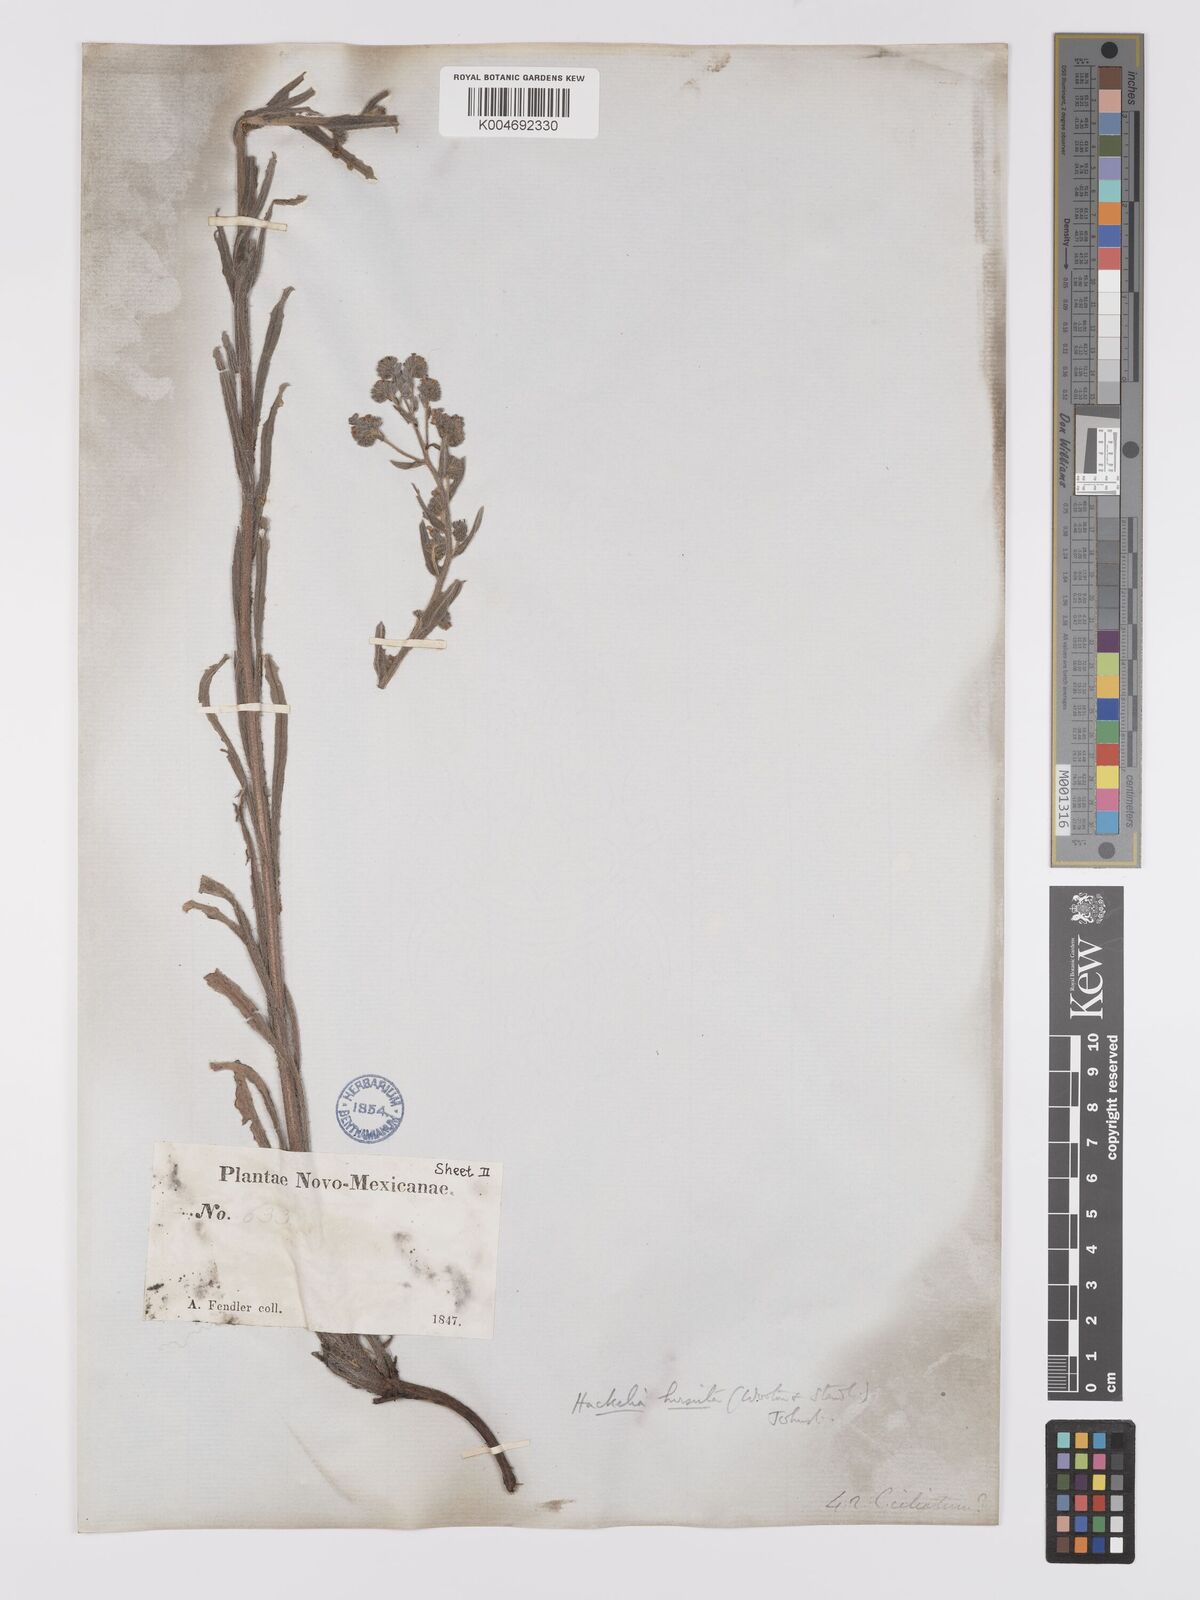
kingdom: Plantae
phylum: Tracheophyta
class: Magnoliopsida
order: Boraginales
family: Boraginaceae
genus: Hackelia
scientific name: Hackelia hirsuta
